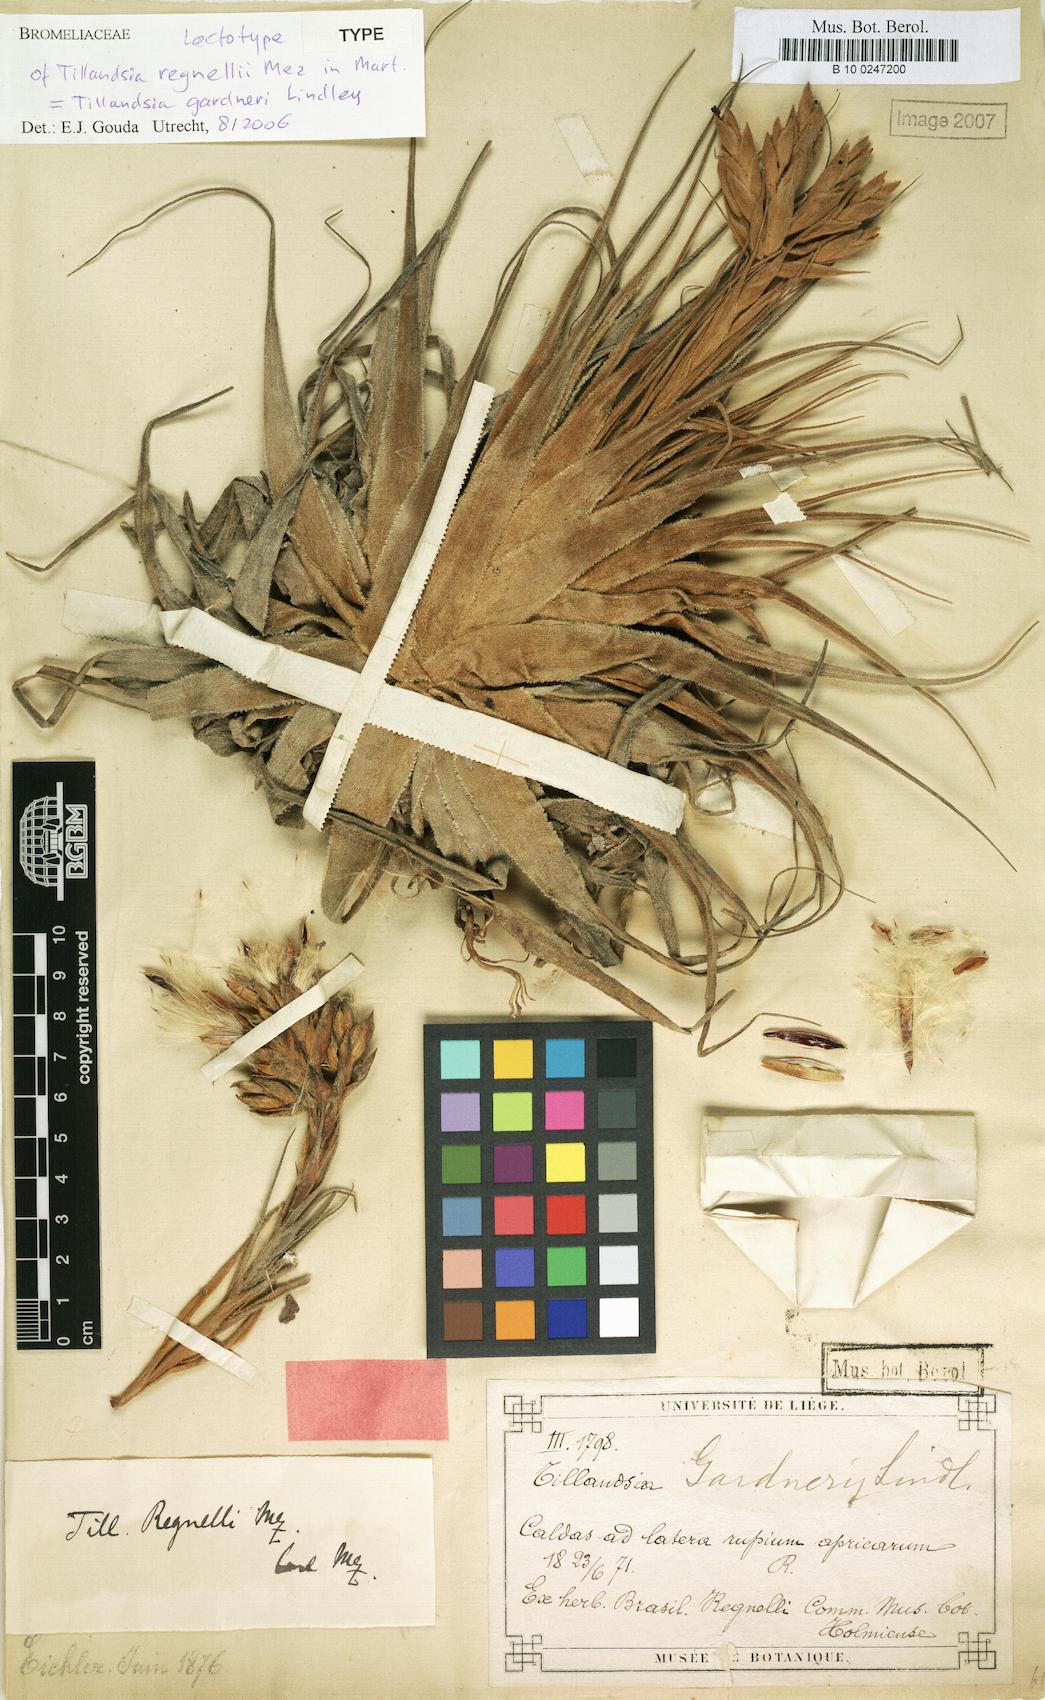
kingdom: Plantae
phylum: Tracheophyta
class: Liliopsida
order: Poales
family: Bromeliaceae
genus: Tillandsia
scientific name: Tillandsia gardneri
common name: Airplant
